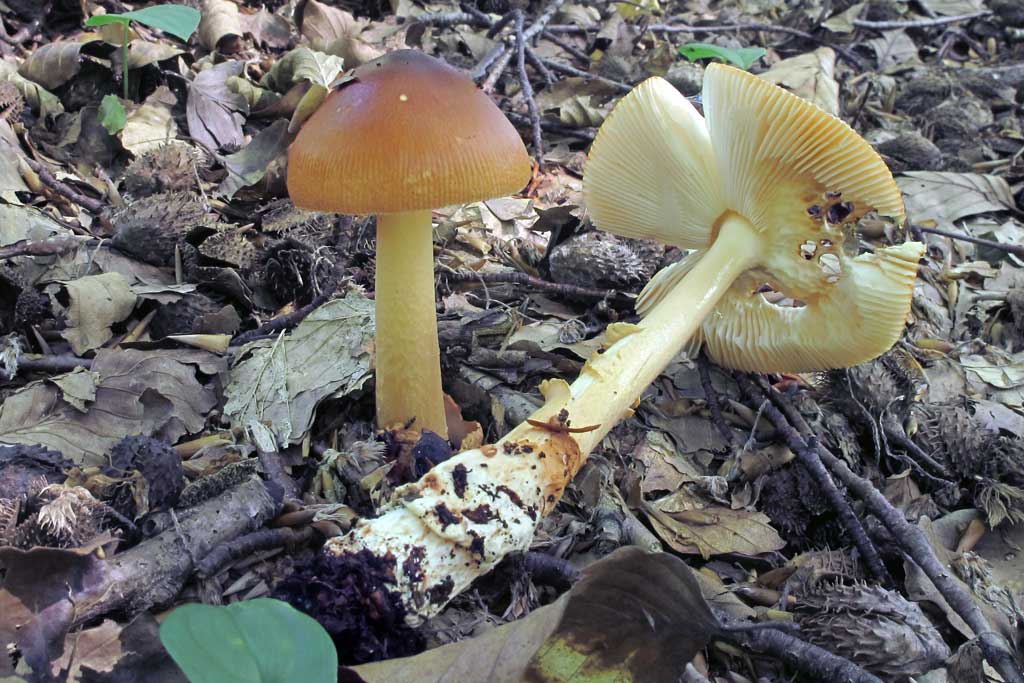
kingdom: Fungi
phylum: Basidiomycota
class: Agaricomycetes
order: Agaricales
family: Amanitaceae
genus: Amanita
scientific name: Amanita fulva
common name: brun kam-fluesvamp
